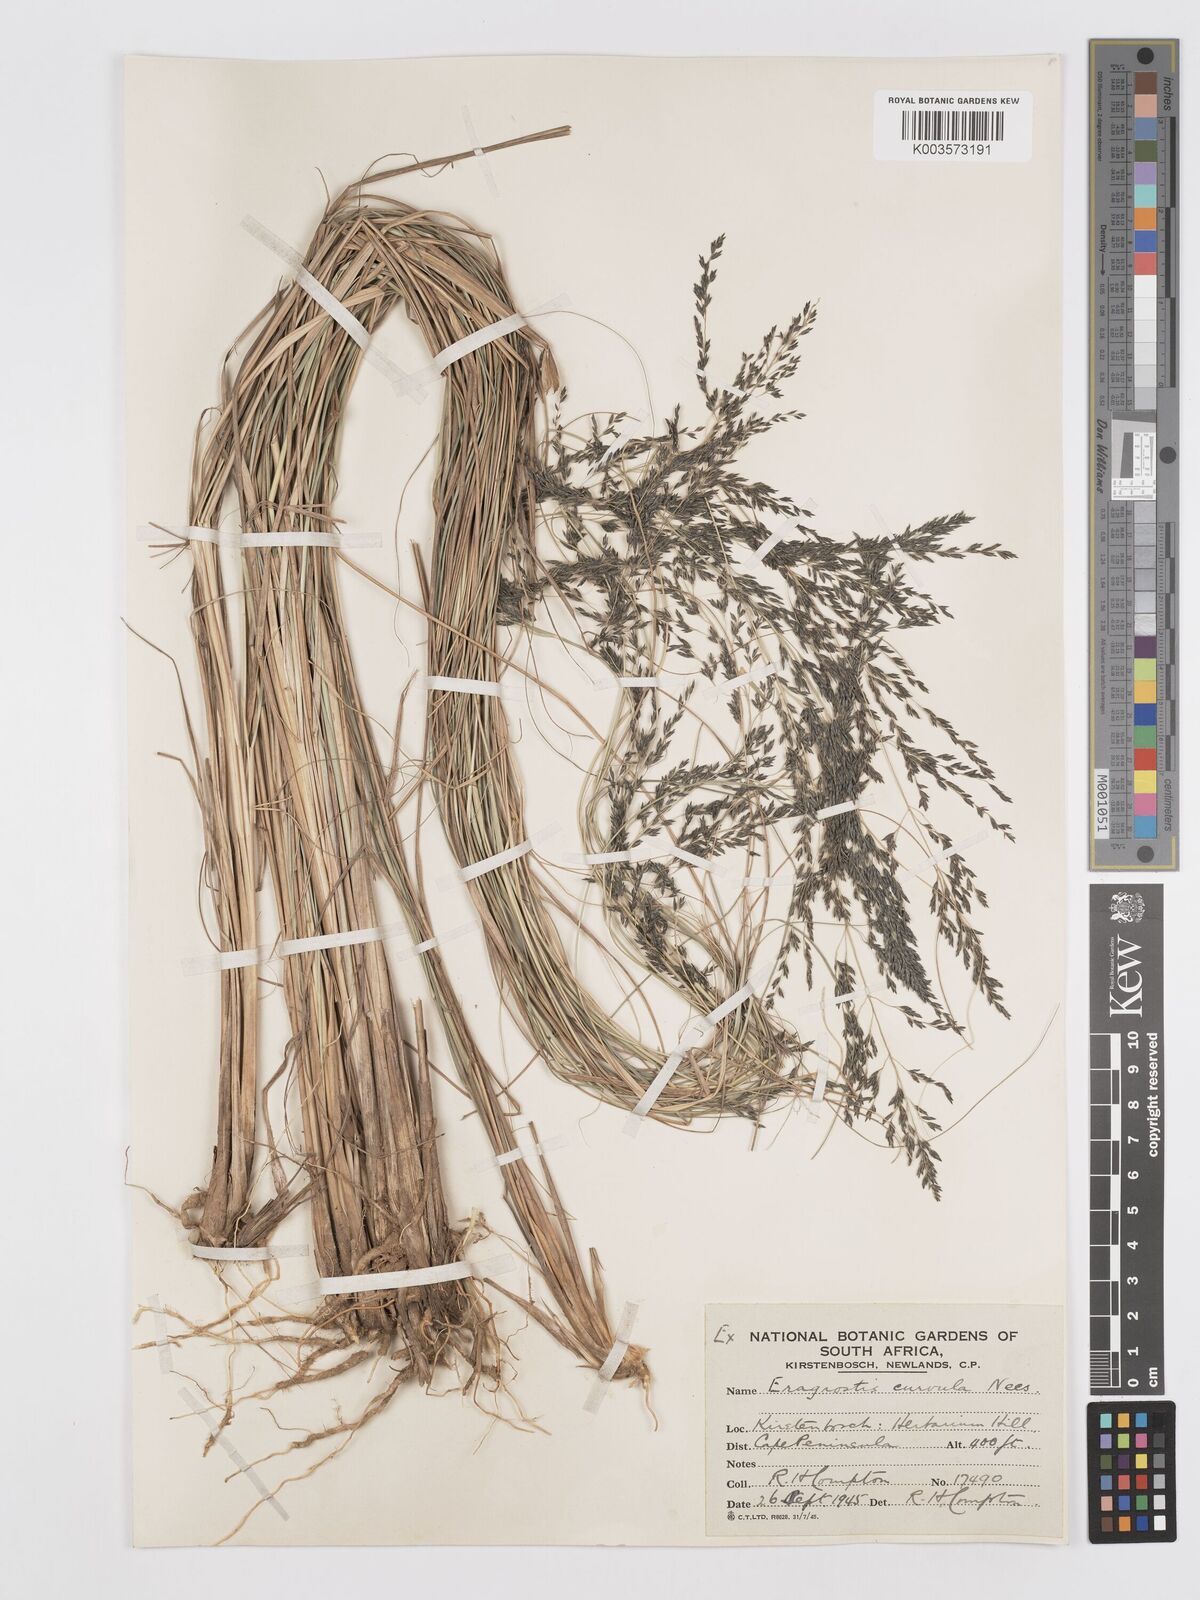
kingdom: Plantae
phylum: Tracheophyta
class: Liliopsida
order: Poales
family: Poaceae
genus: Eragrostis
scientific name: Eragrostis curvula
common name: African love-grass
